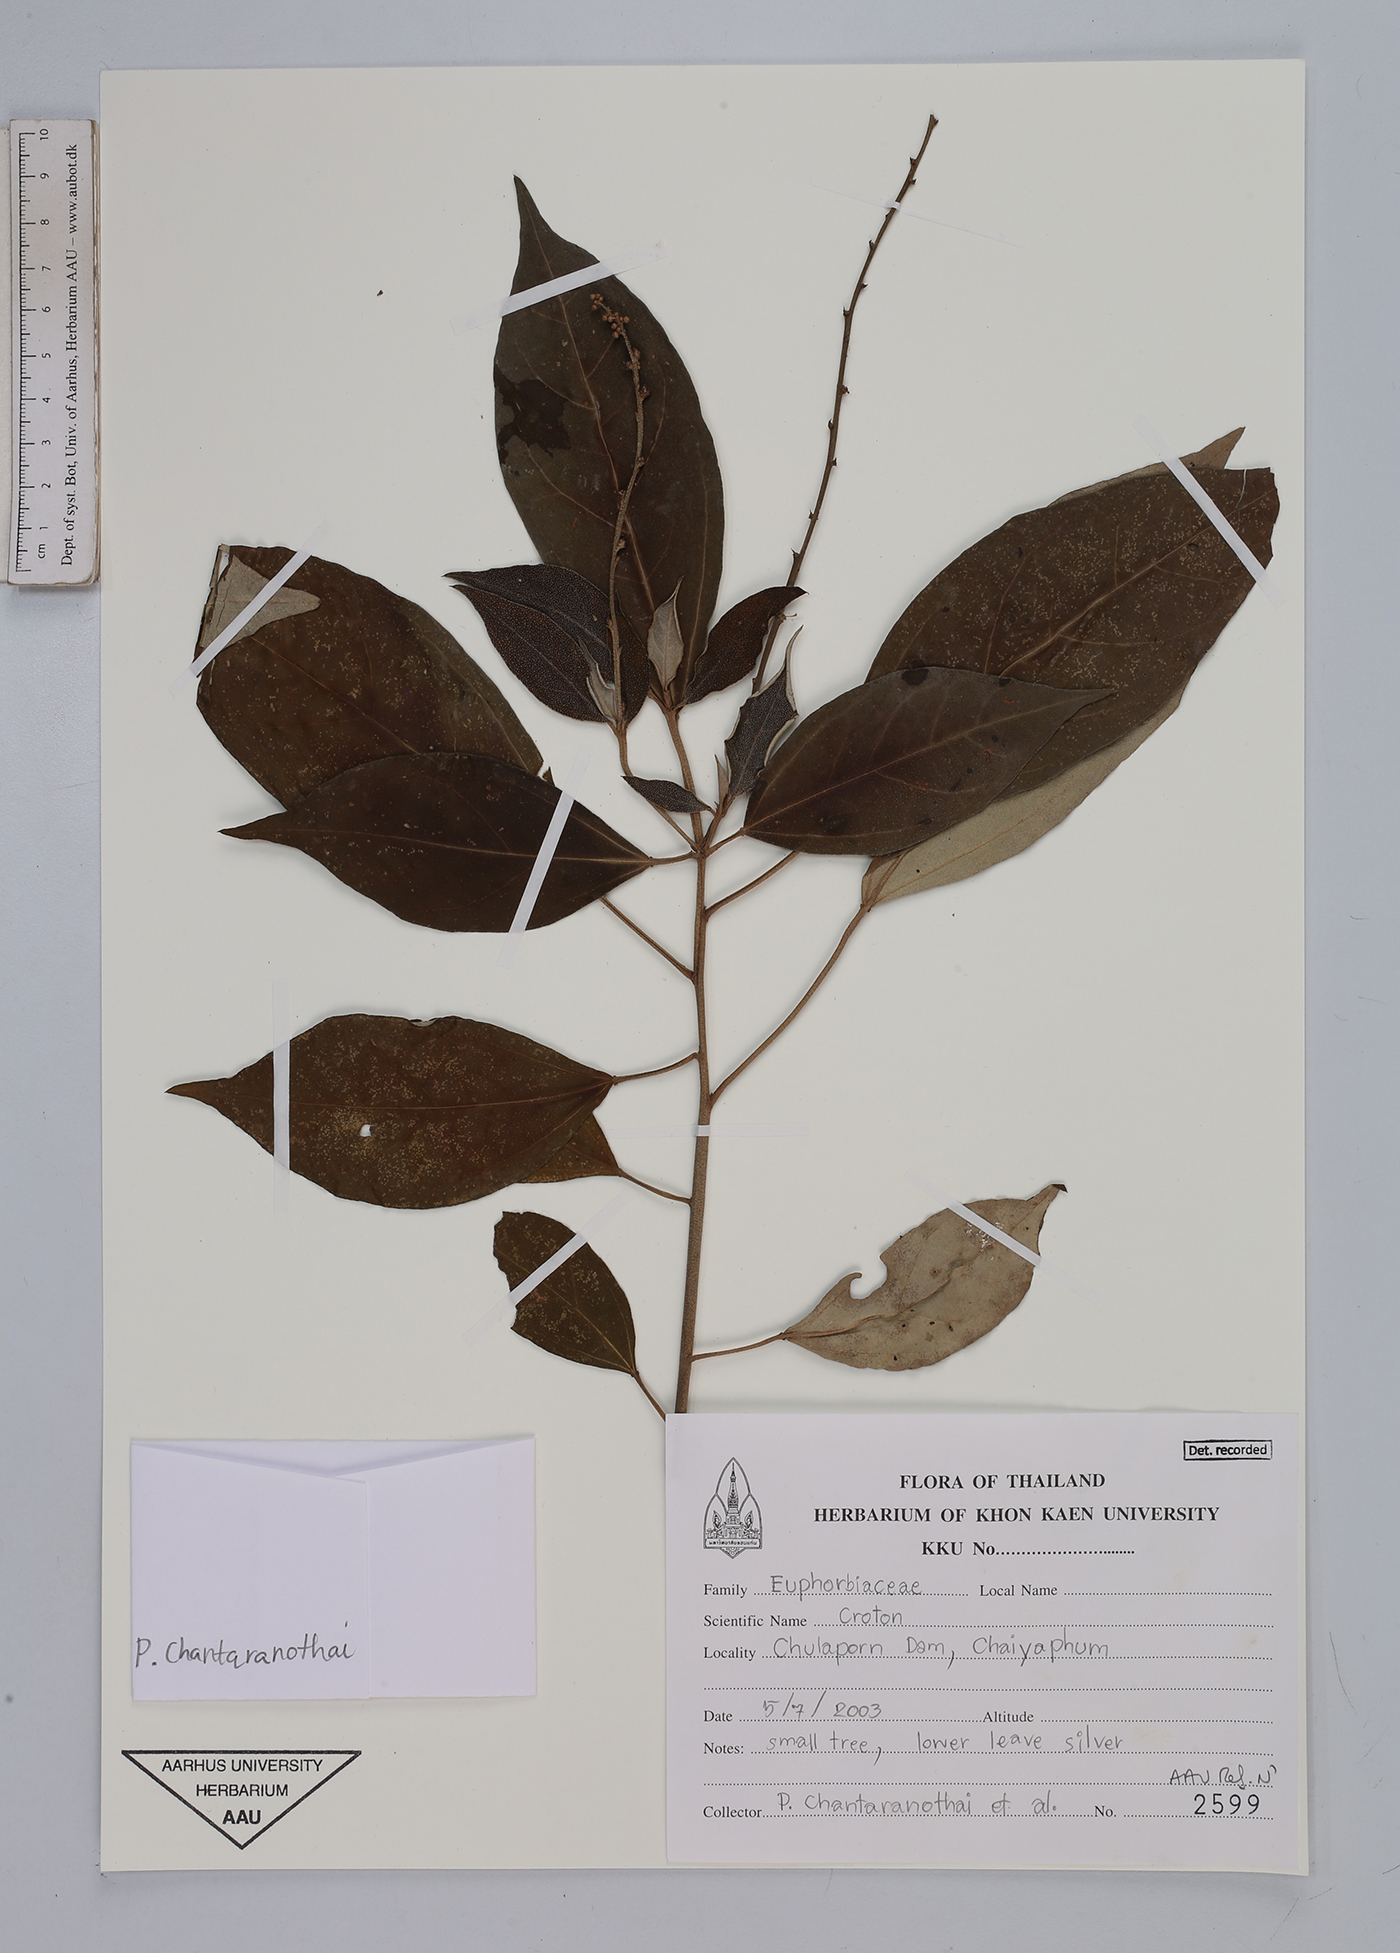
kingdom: Plantae
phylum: Tracheophyta
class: Magnoliopsida
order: Malpighiales
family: Euphorbiaceae
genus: Croton
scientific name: Croton
